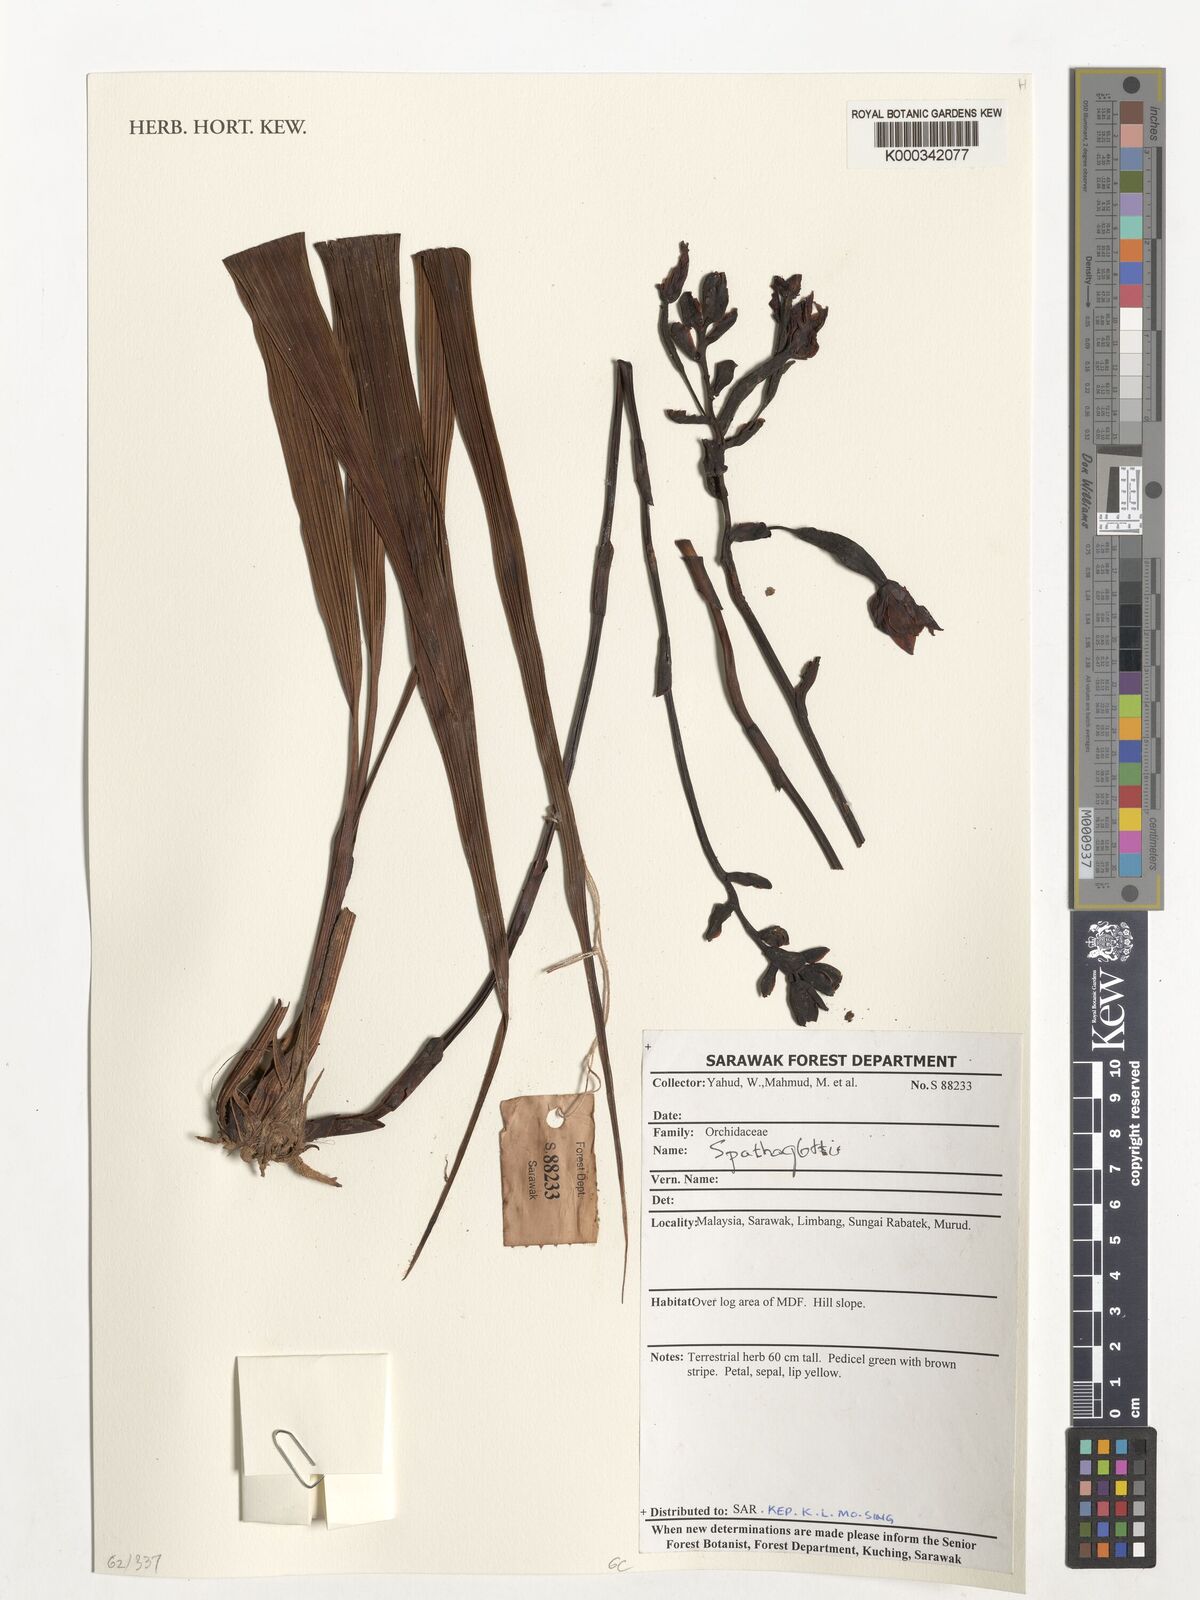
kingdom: Plantae
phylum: Tracheophyta
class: Liliopsida
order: Asparagales
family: Orchidaceae
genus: Spathoglottis
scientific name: Spathoglottis
